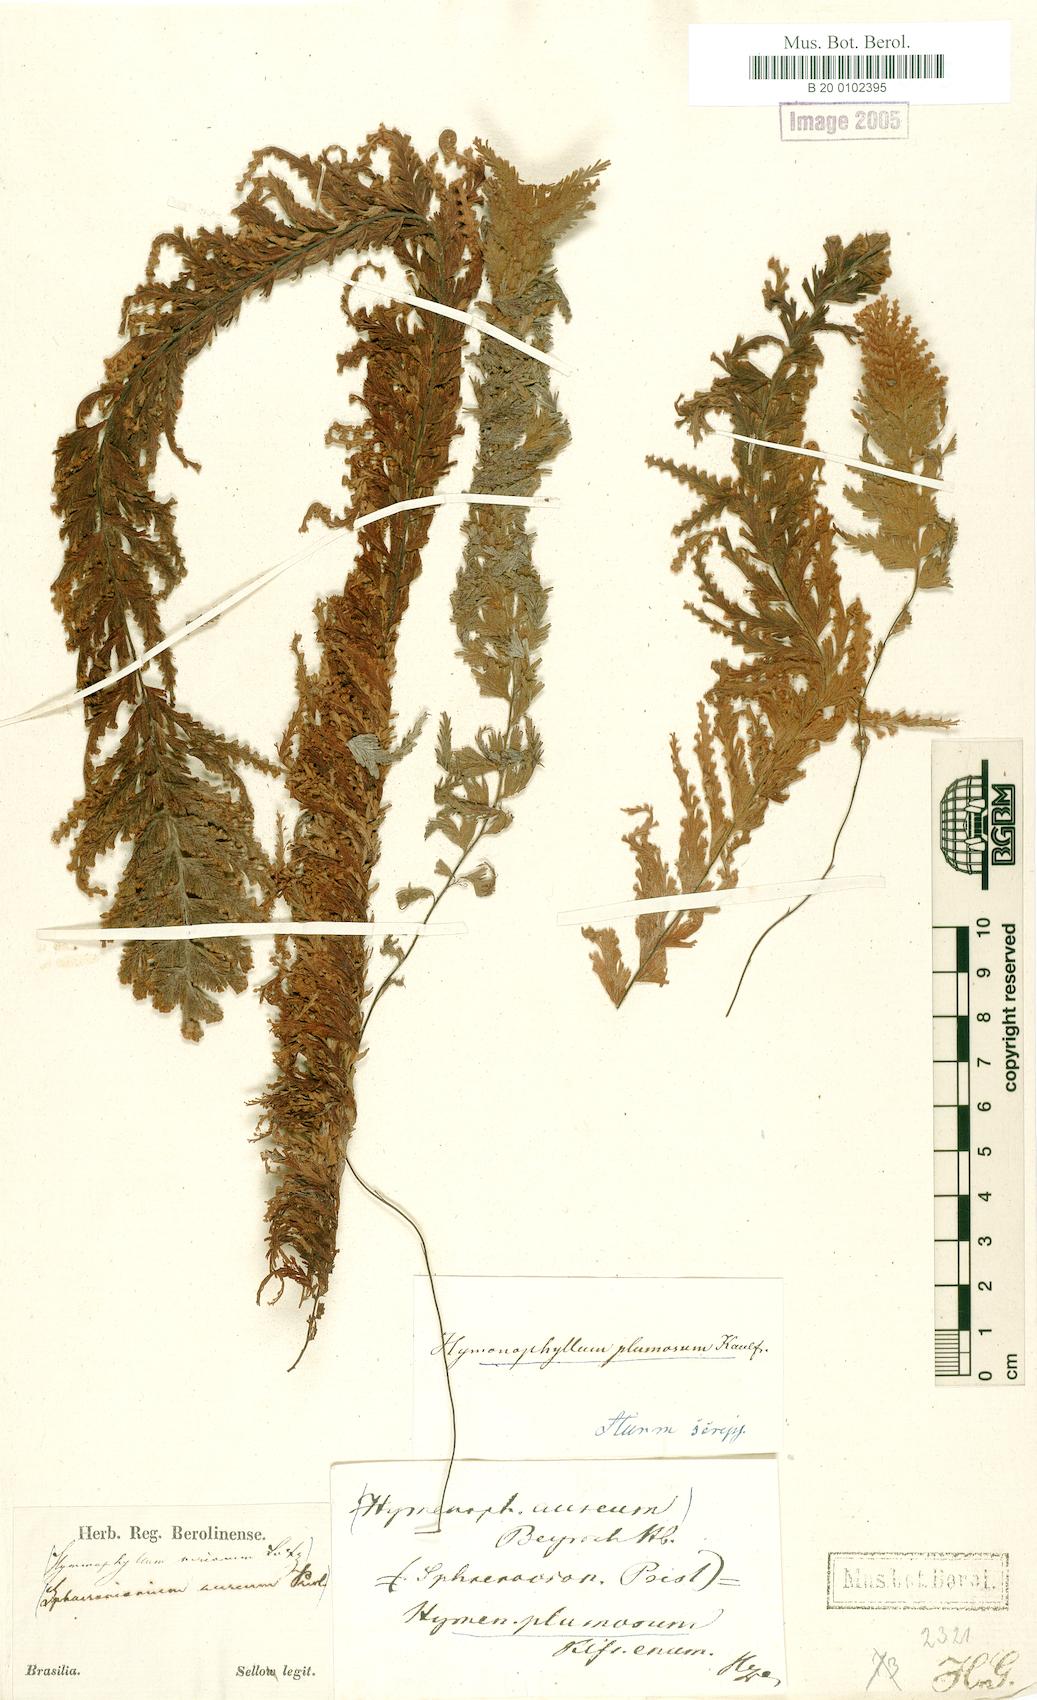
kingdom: Plantae
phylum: Tracheophyta
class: Polypodiopsida
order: Hymenophyllales
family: Hymenophyllaceae
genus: Hymenophyllum
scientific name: Hymenophyllum plumosum
